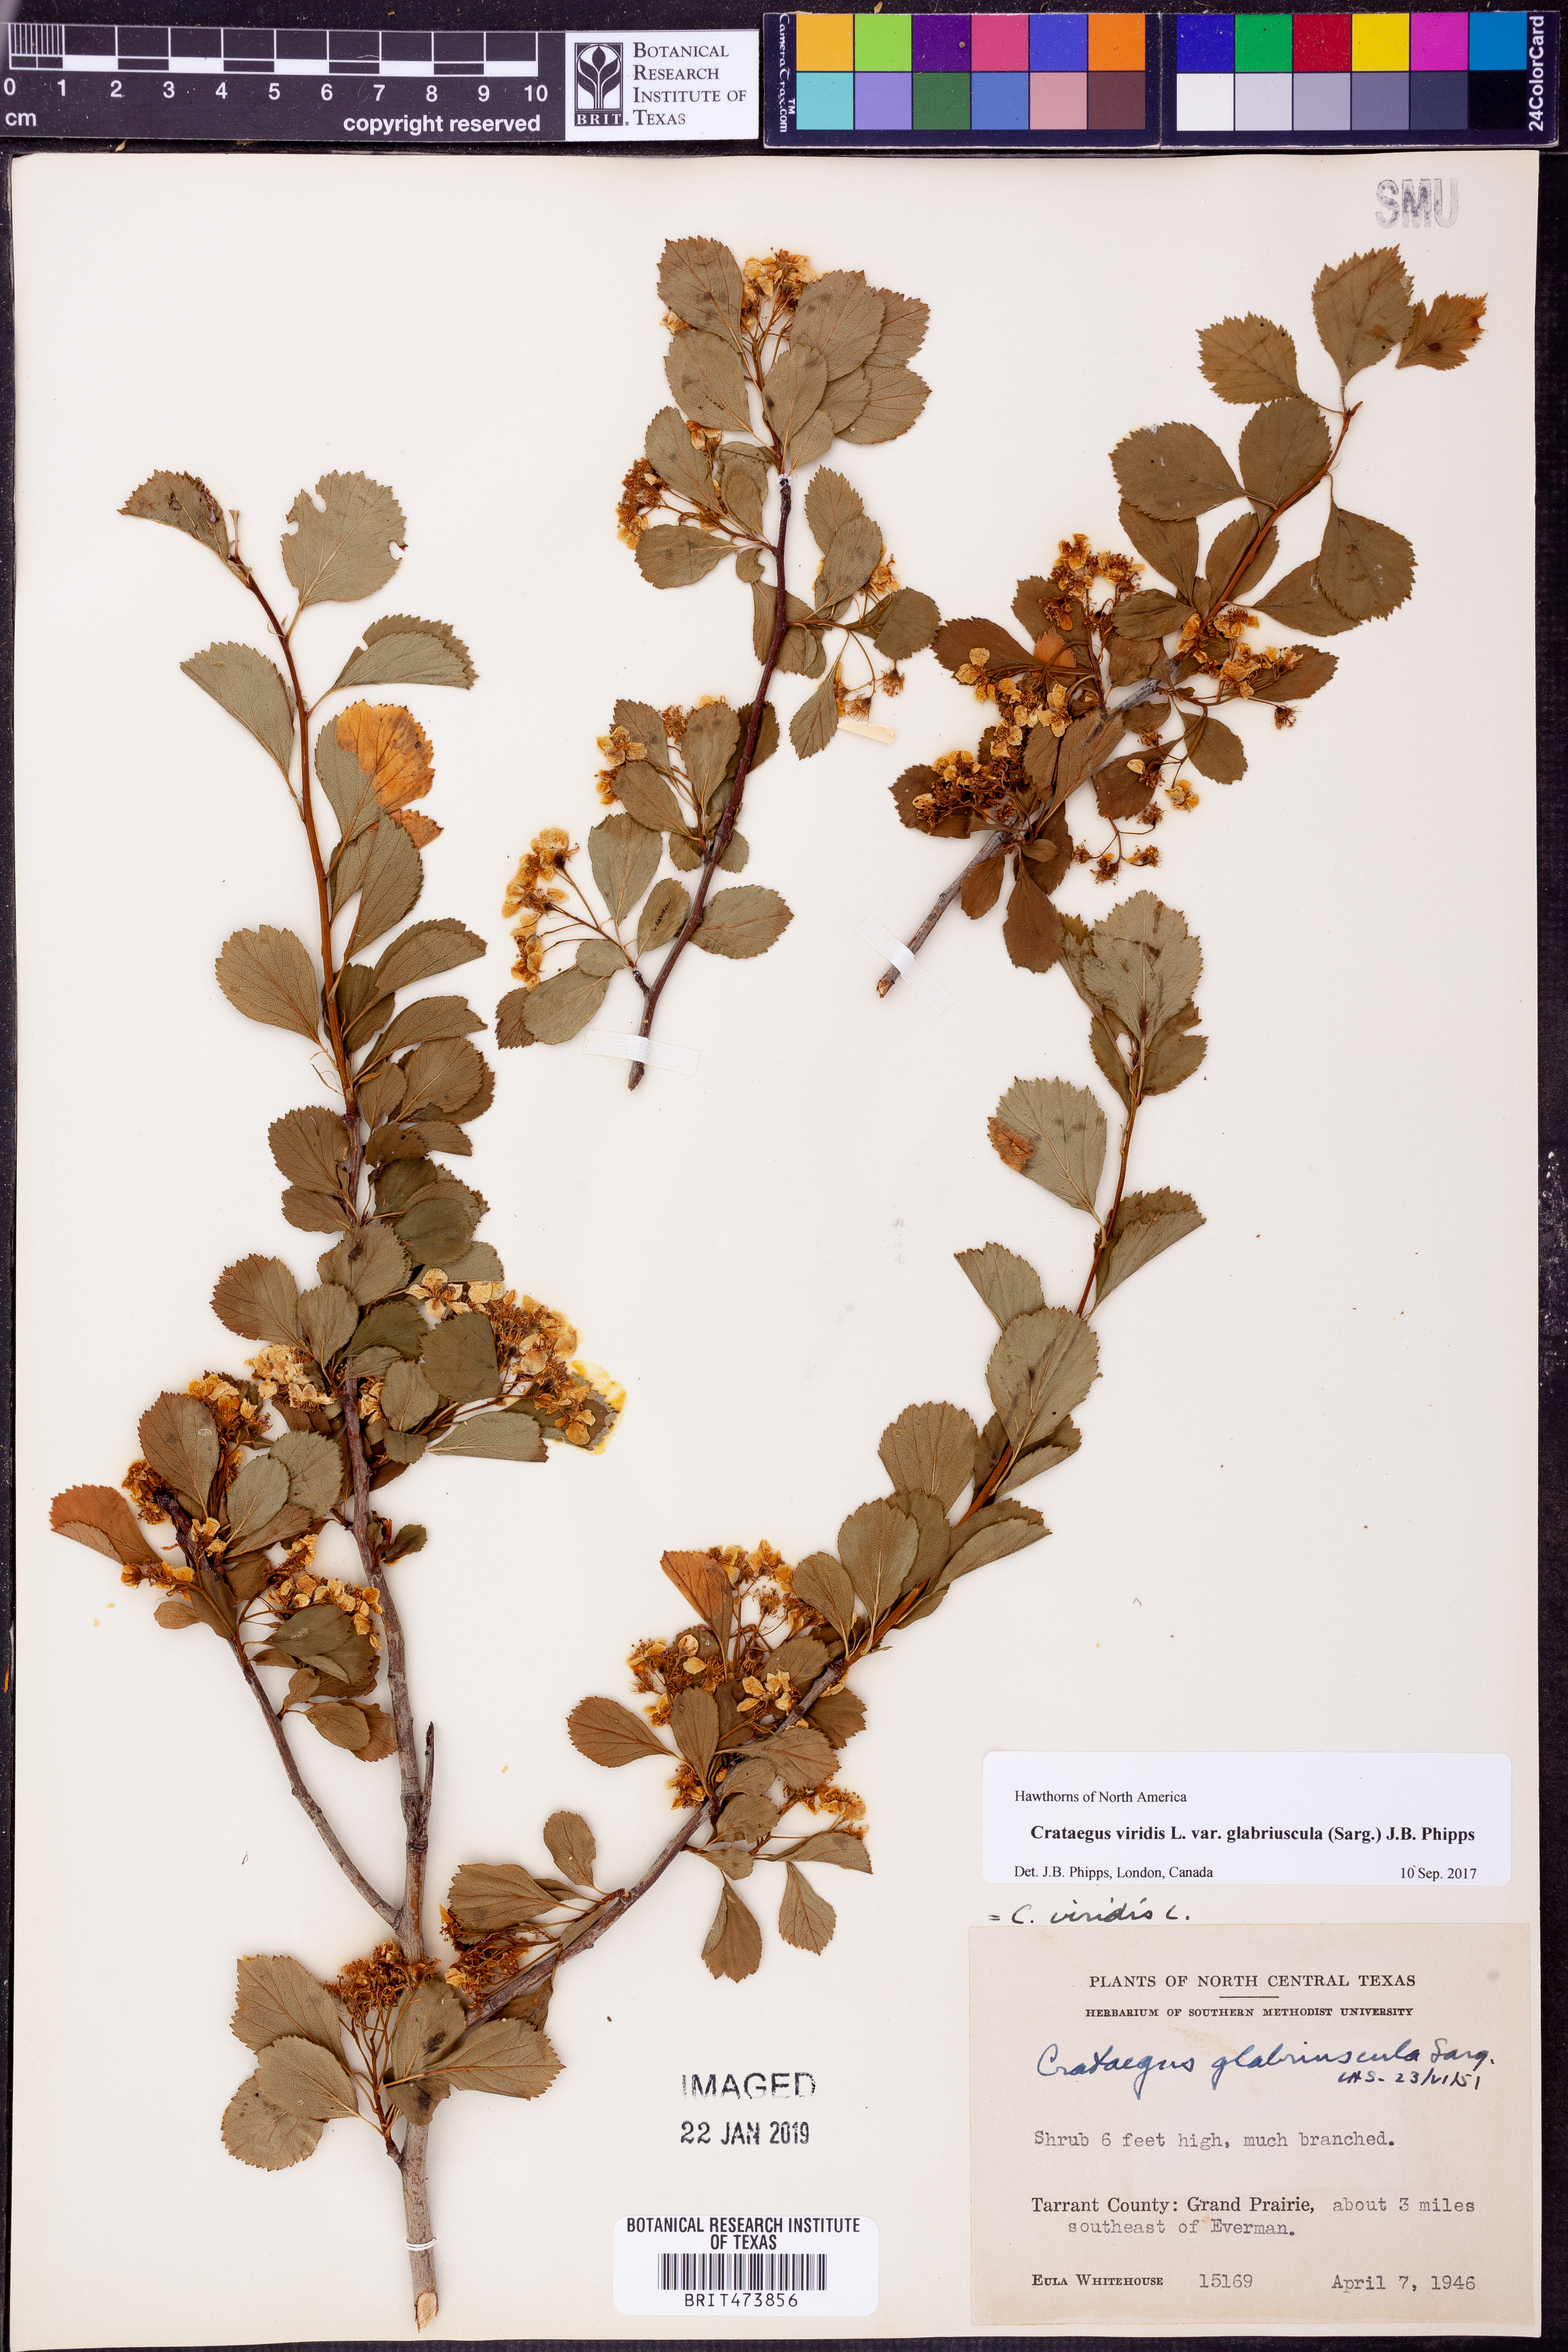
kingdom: Plantae
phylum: Tracheophyta
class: Magnoliopsida
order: Rosales
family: Rosaceae
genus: Crataegus
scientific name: Crataegus viridis
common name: Southernthorn
